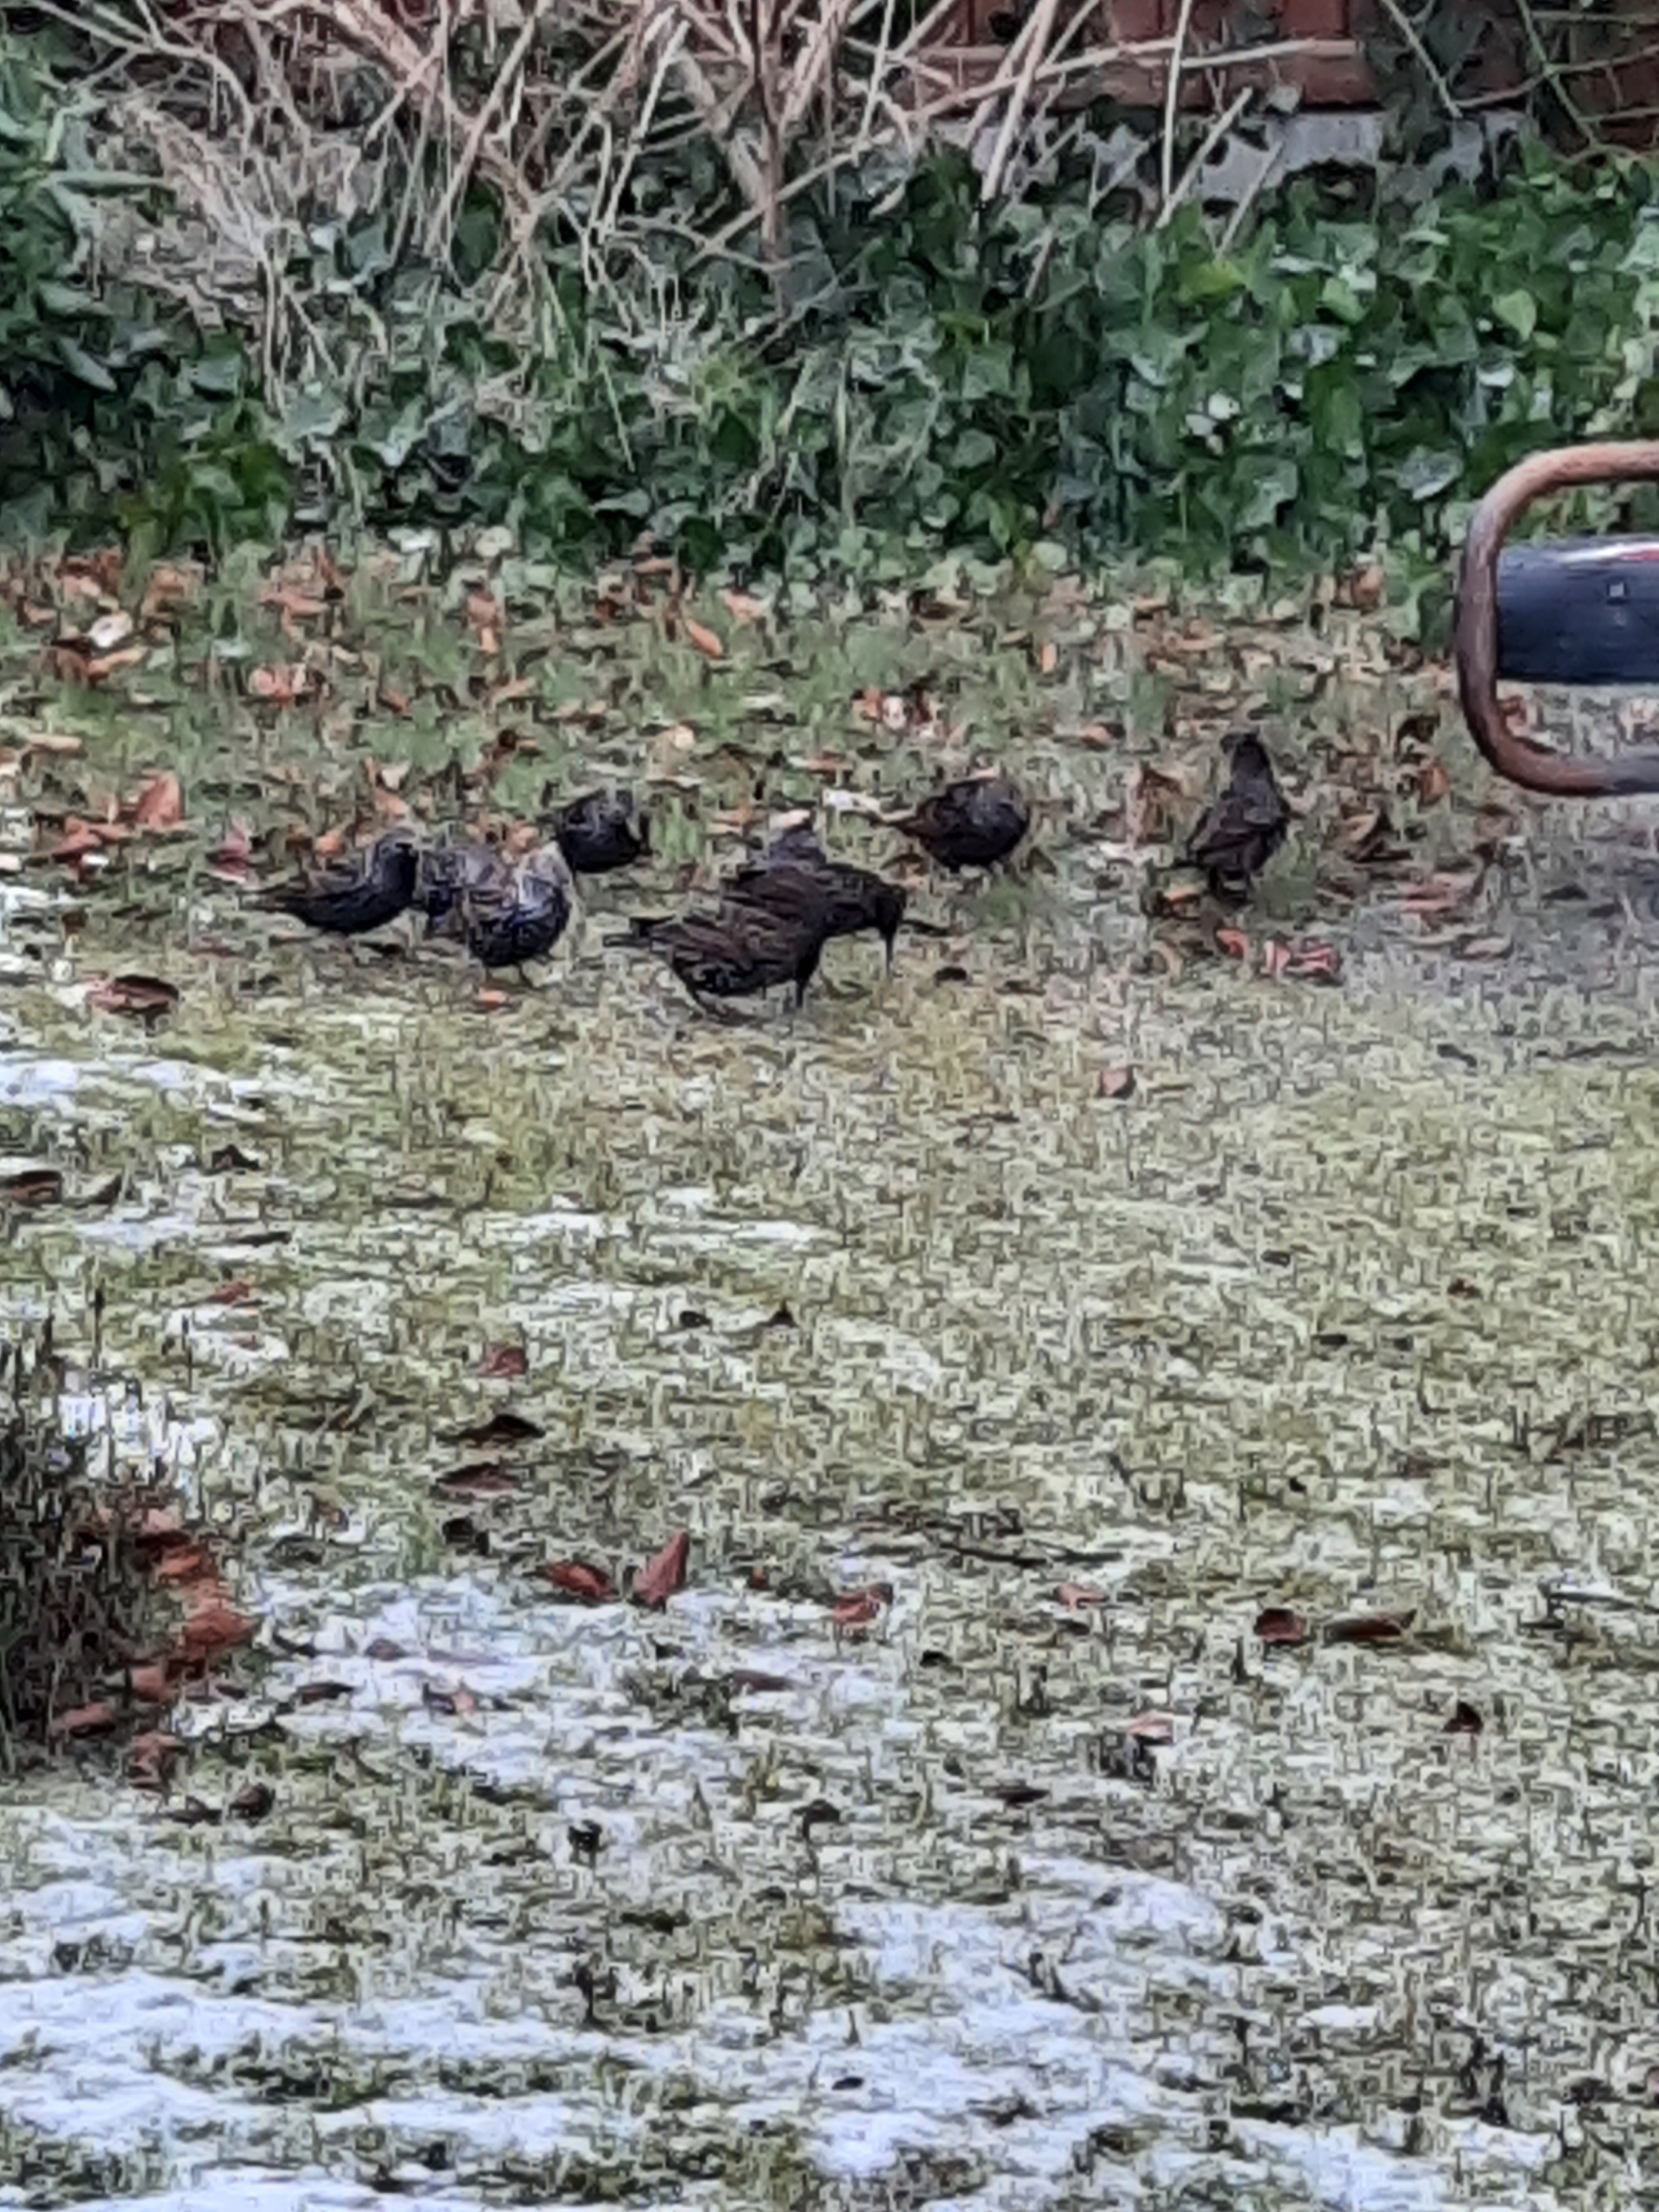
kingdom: Animalia
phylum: Chordata
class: Aves
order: Passeriformes
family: Sturnidae
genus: Sturnus
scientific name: Sturnus vulgaris
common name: Stær
